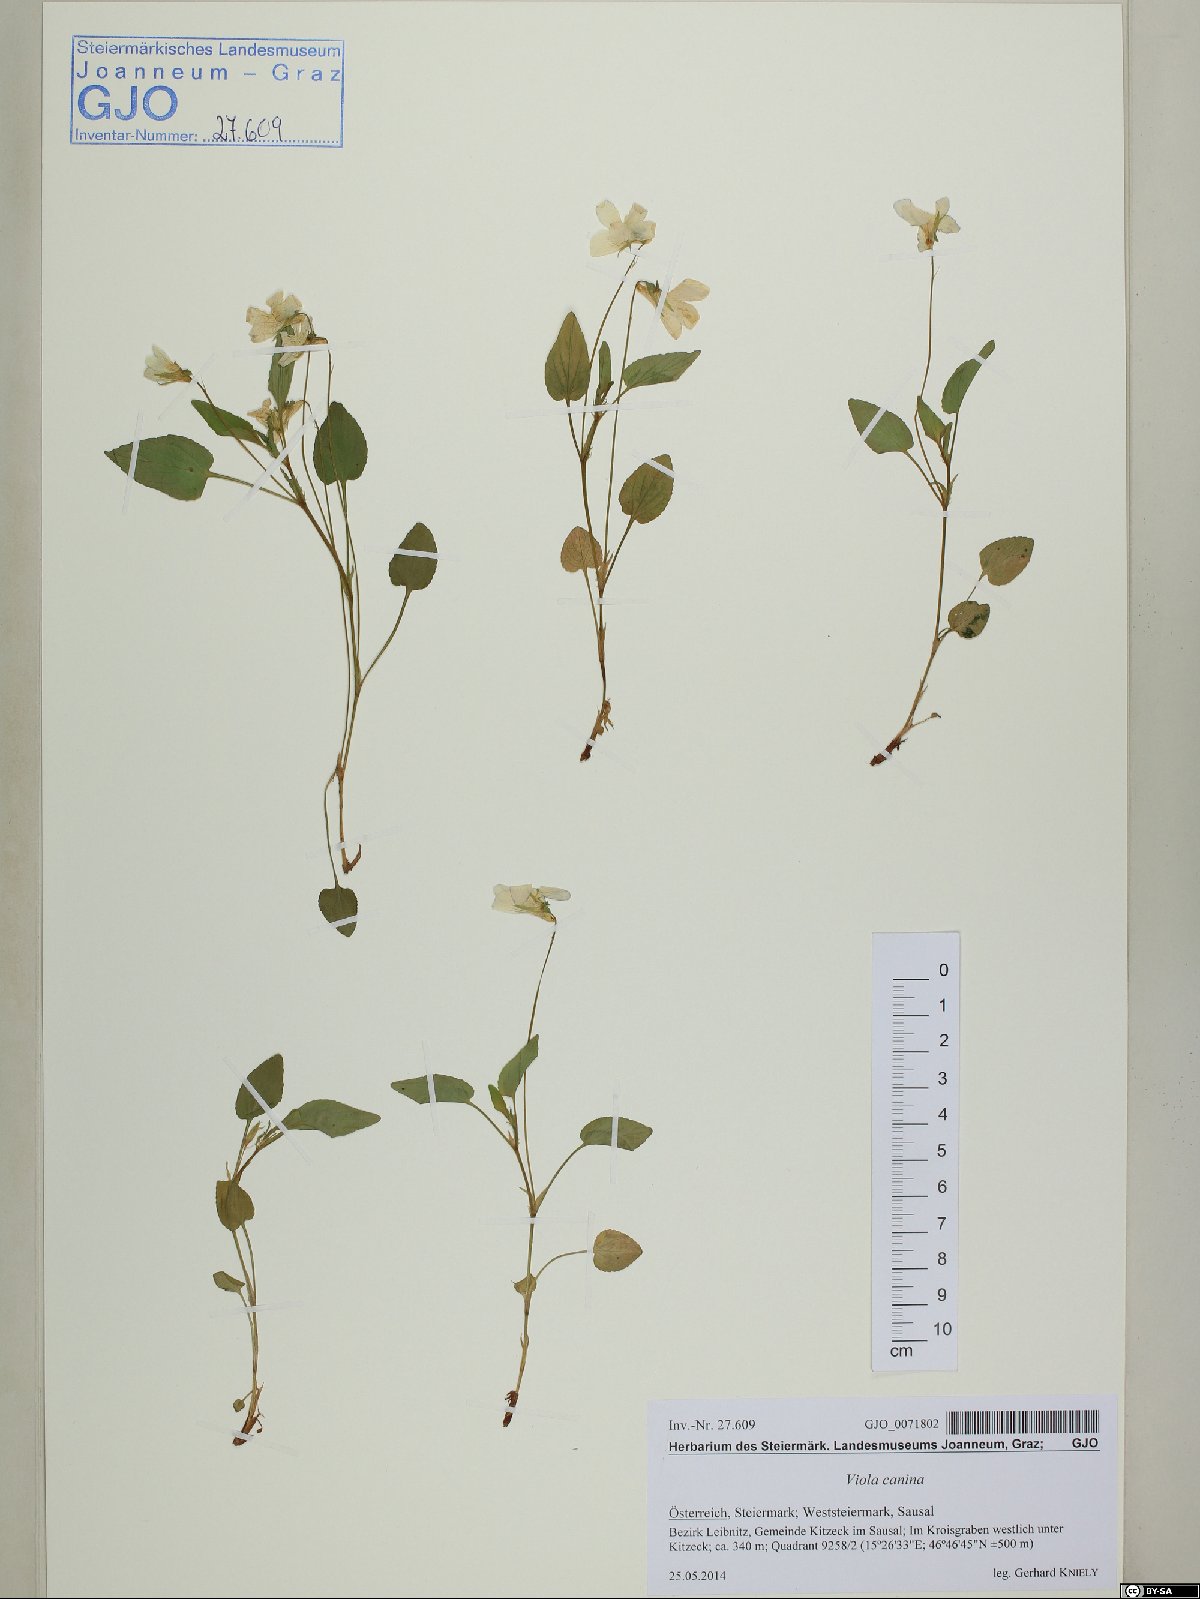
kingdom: Plantae
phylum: Tracheophyta
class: Magnoliopsida
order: Malpighiales
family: Violaceae
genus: Viola
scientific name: Viola canina
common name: Heath dog-violet
